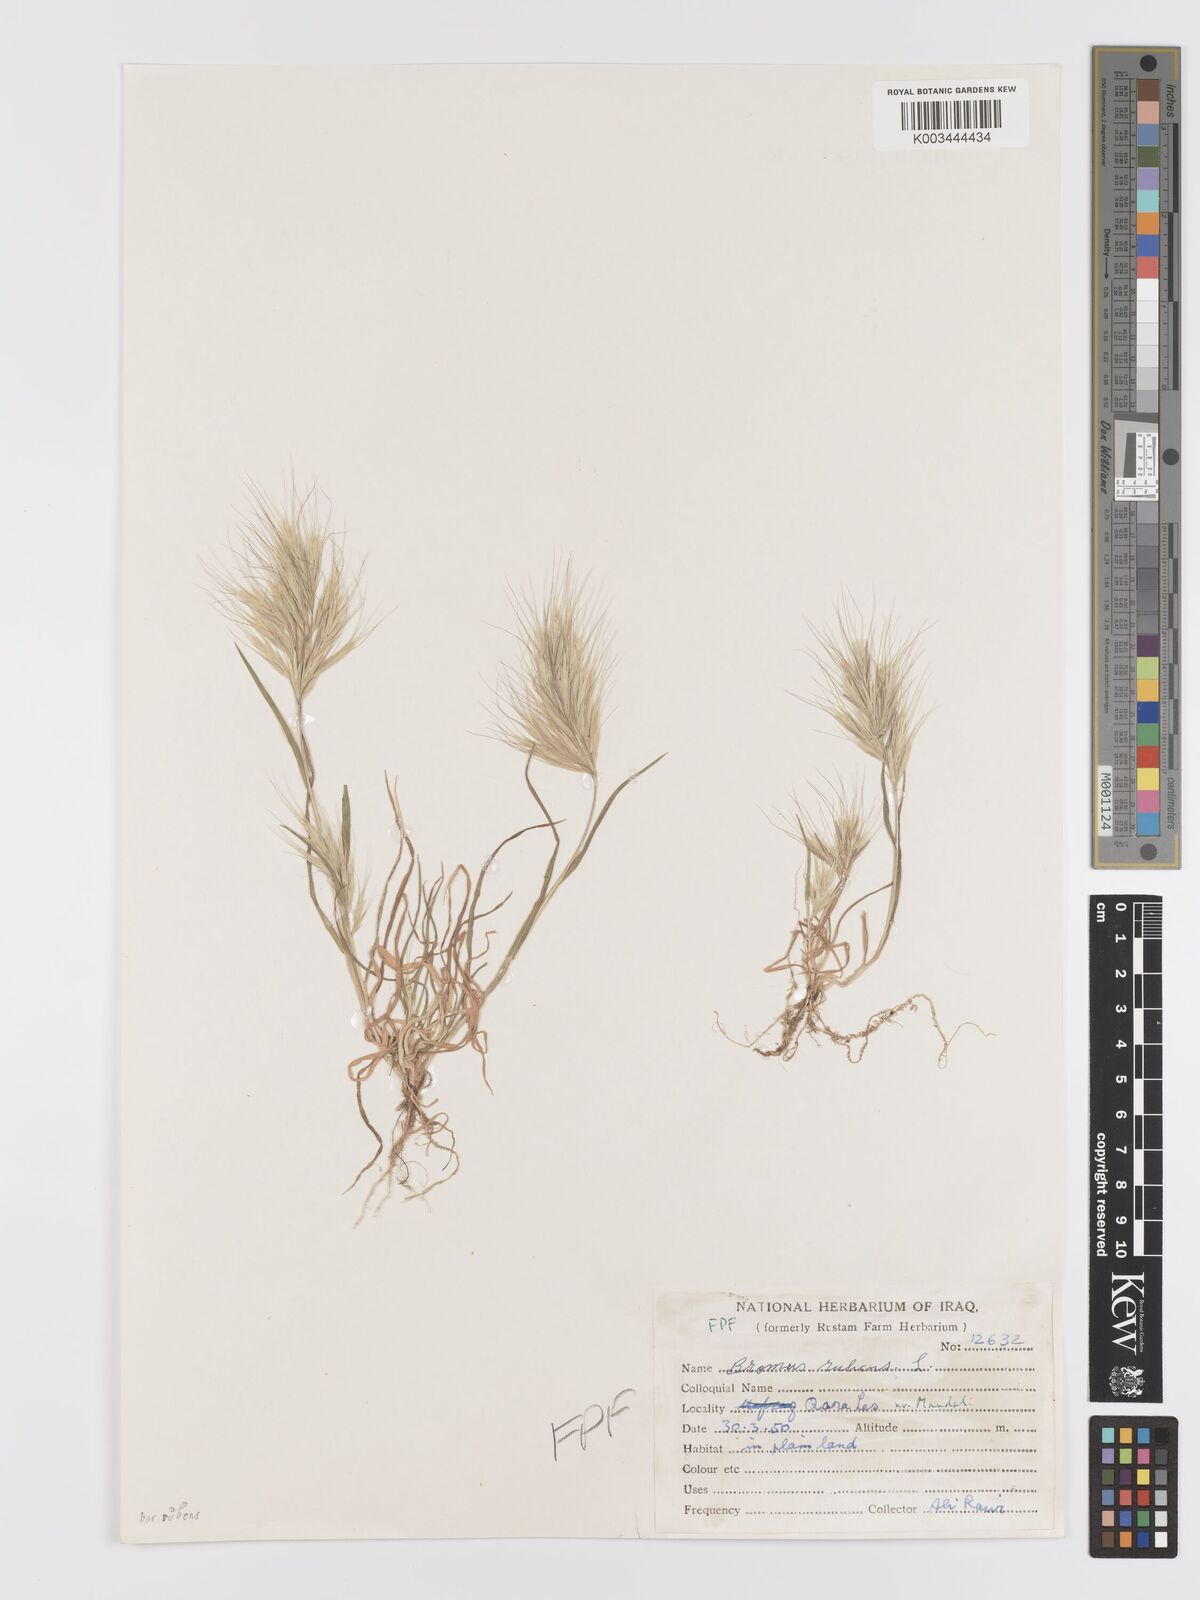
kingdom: Plantae
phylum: Tracheophyta
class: Liliopsida
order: Poales
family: Poaceae
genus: Bromus
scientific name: Bromus rubens
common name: Red brome
